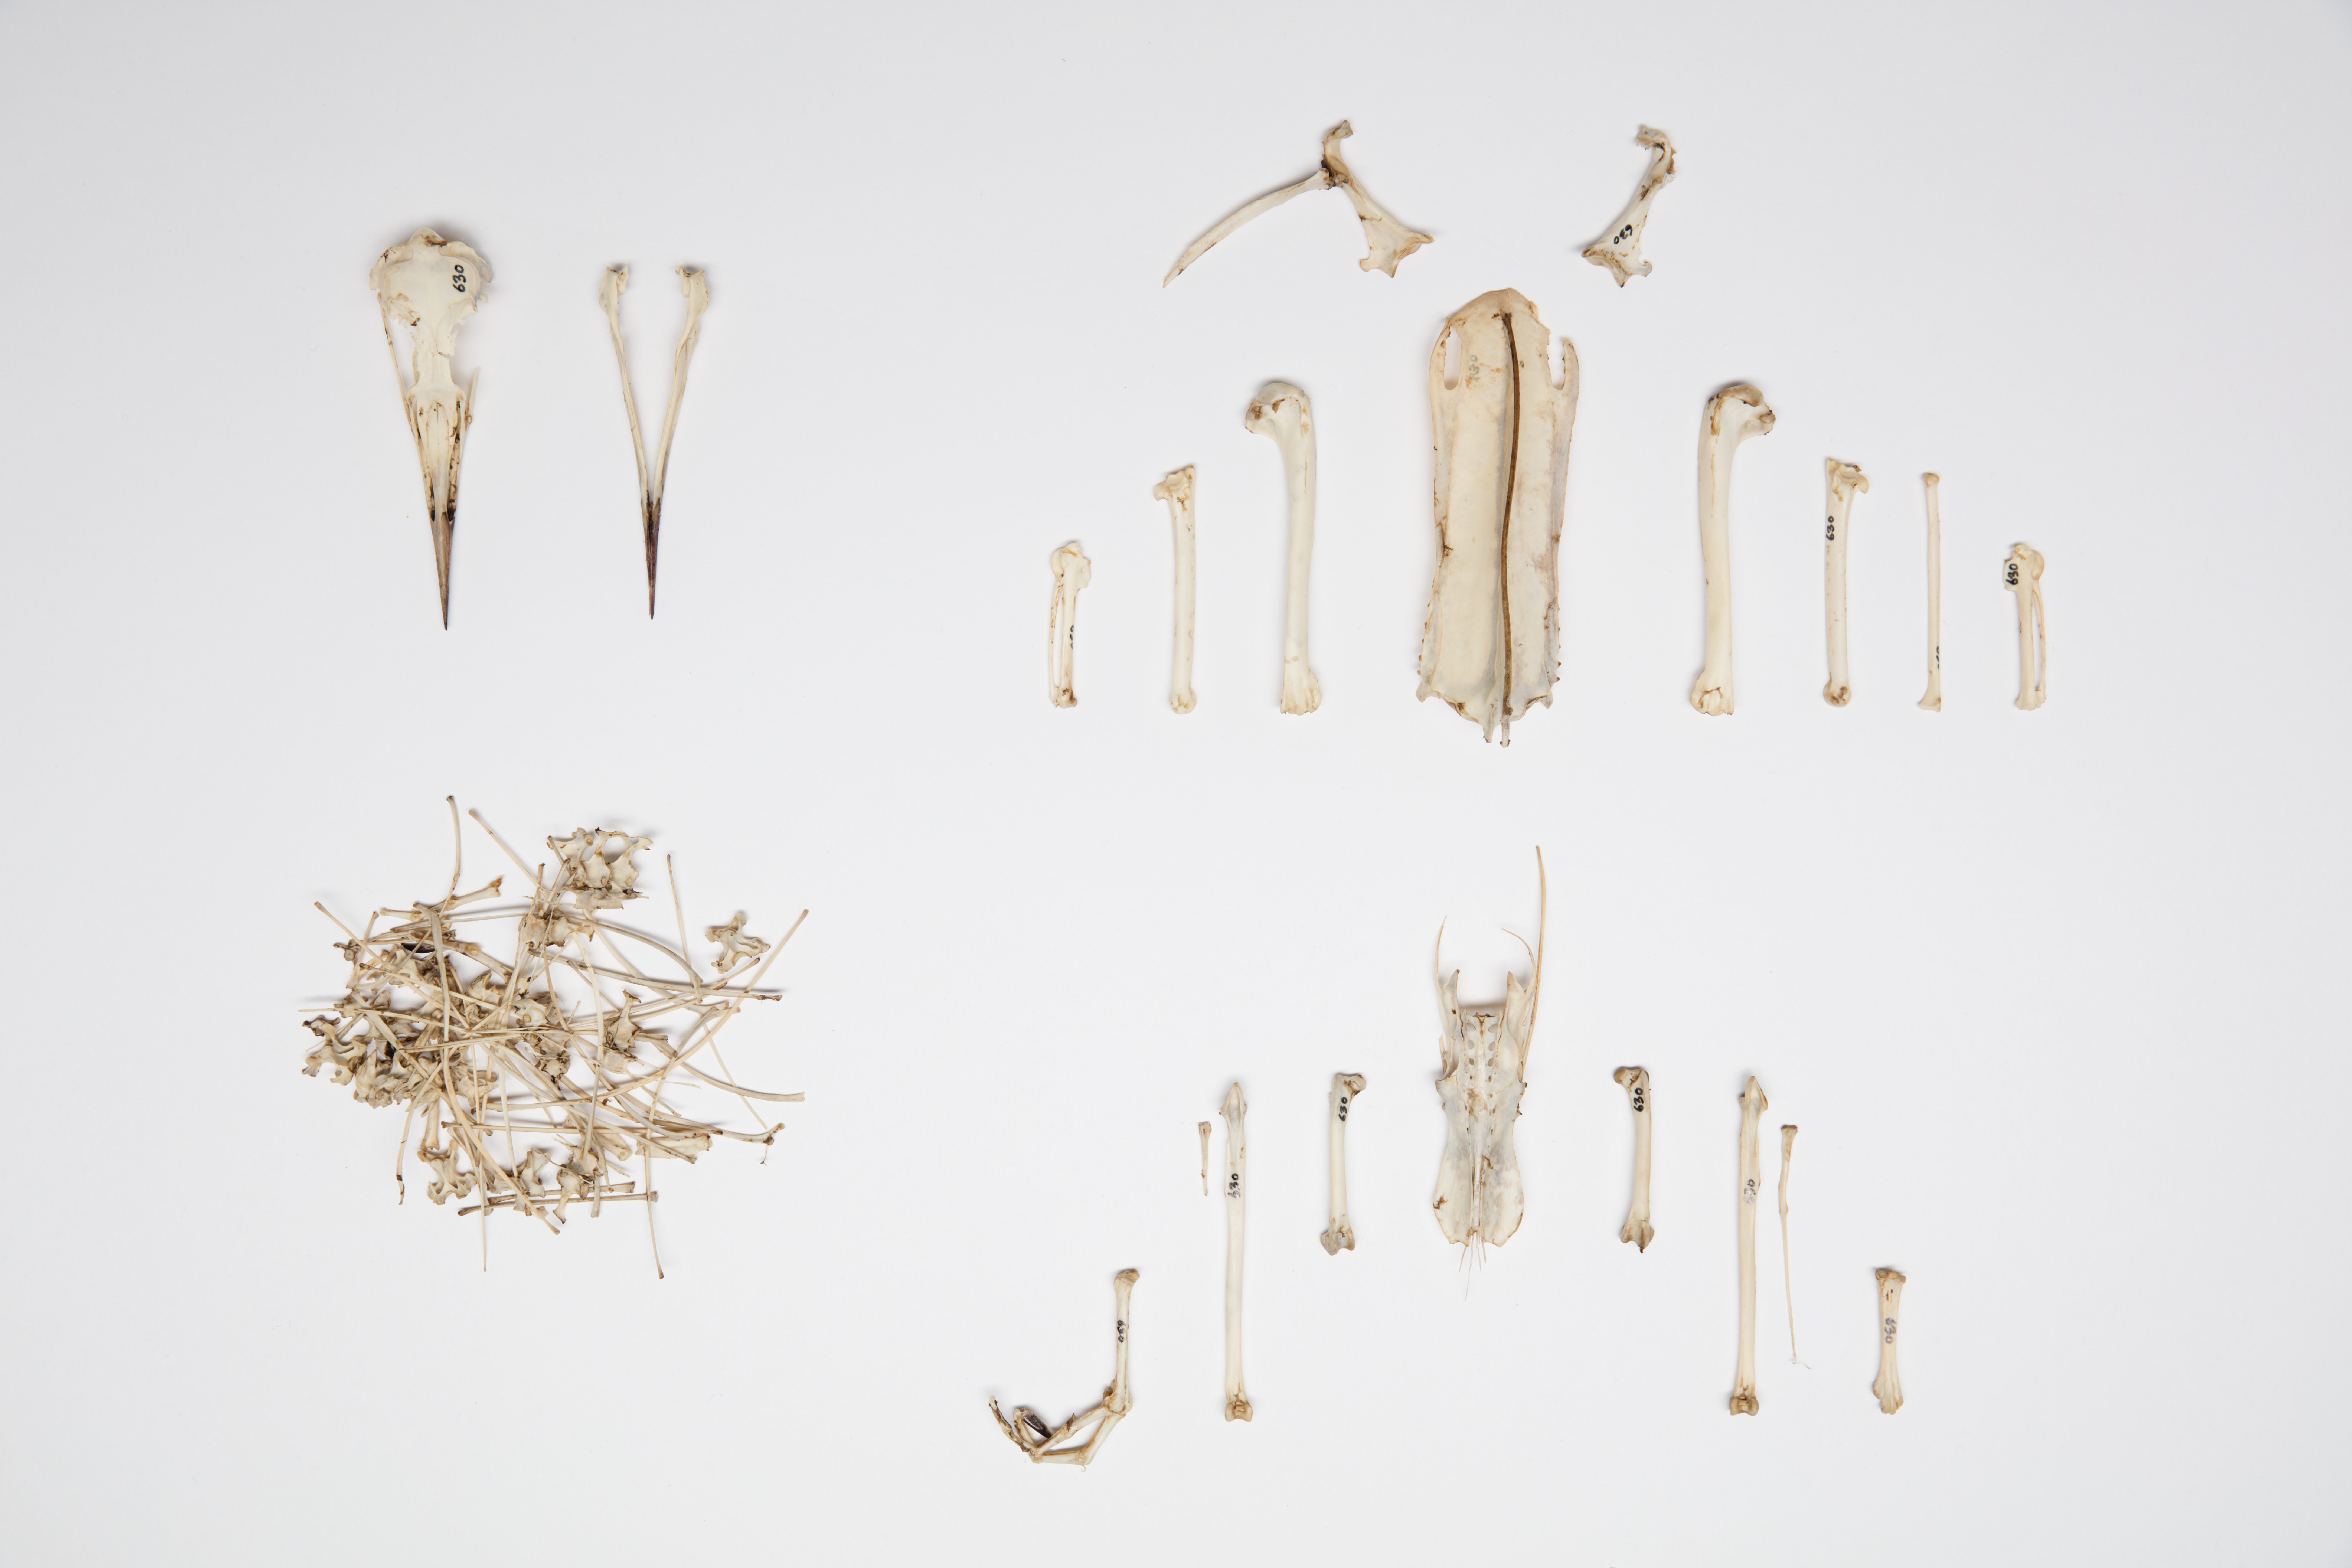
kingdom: Animalia
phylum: Chordata
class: Aves
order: Charadriiformes
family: Alcidae
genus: Uria
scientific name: Uria aalge
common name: Common murre
